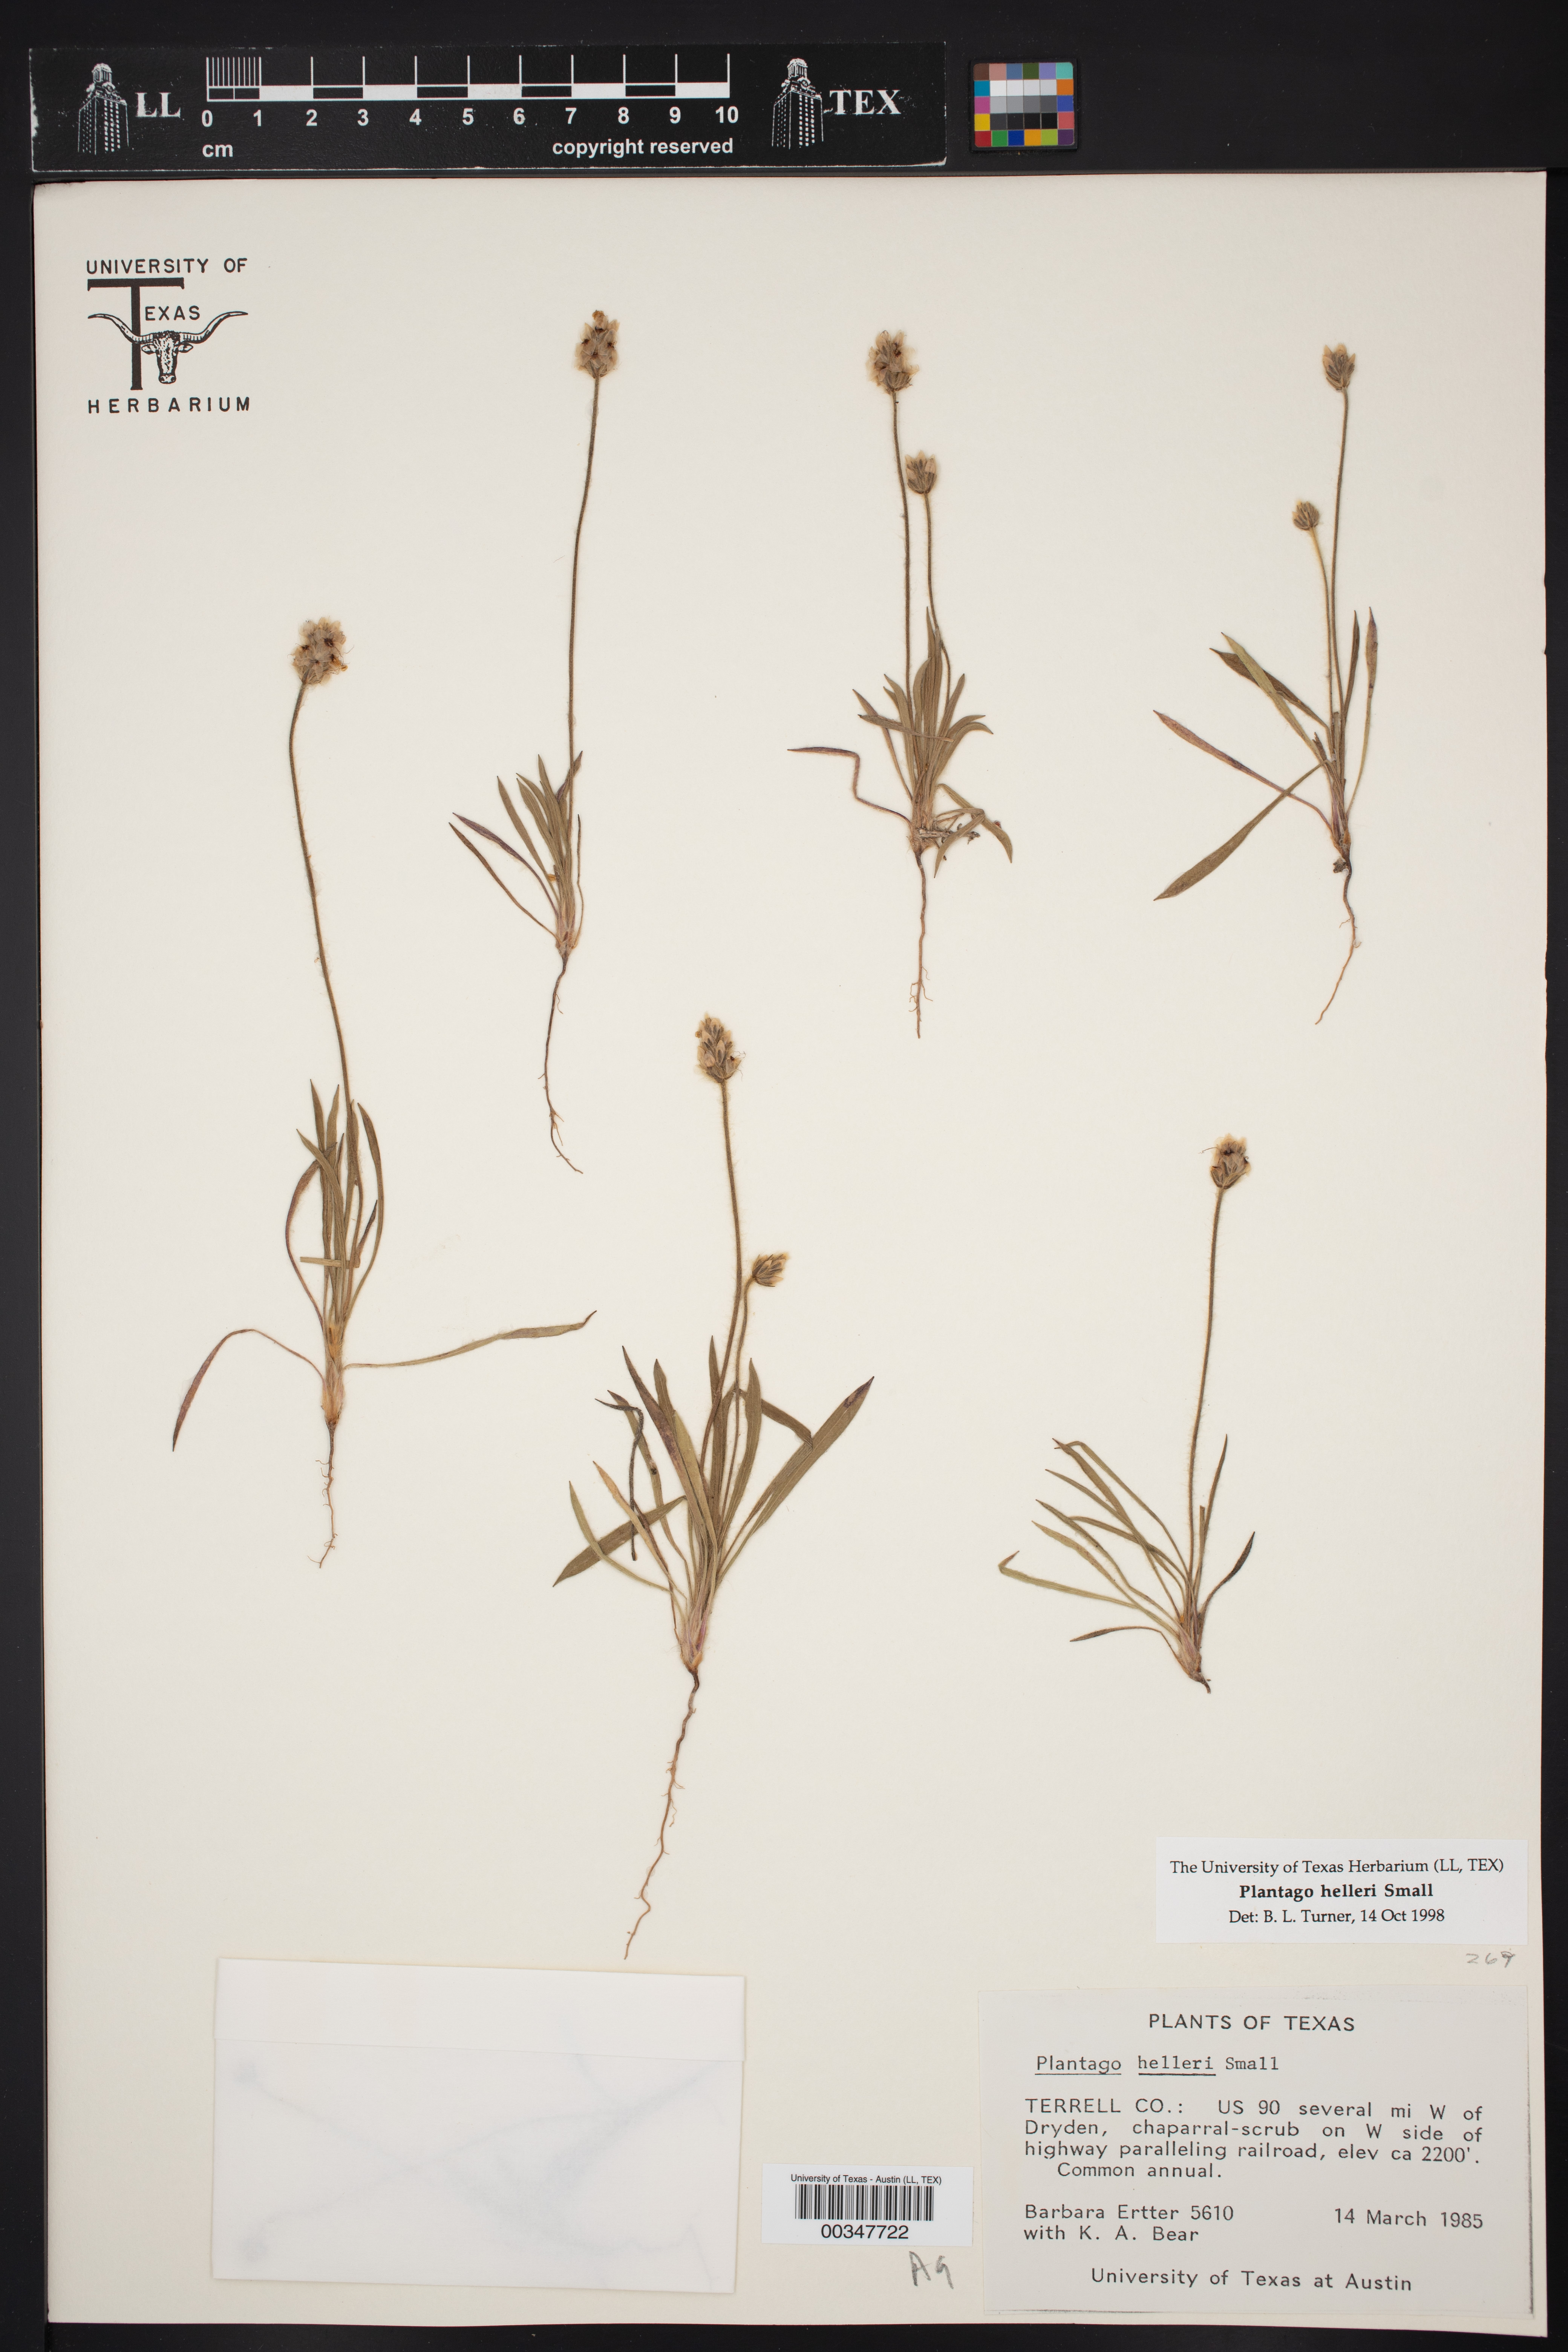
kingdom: Plantae
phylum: Tracheophyta
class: Magnoliopsida
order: Lamiales
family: Plantaginaceae
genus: Plantago
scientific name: Plantago helleri
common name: Heller's plantain
